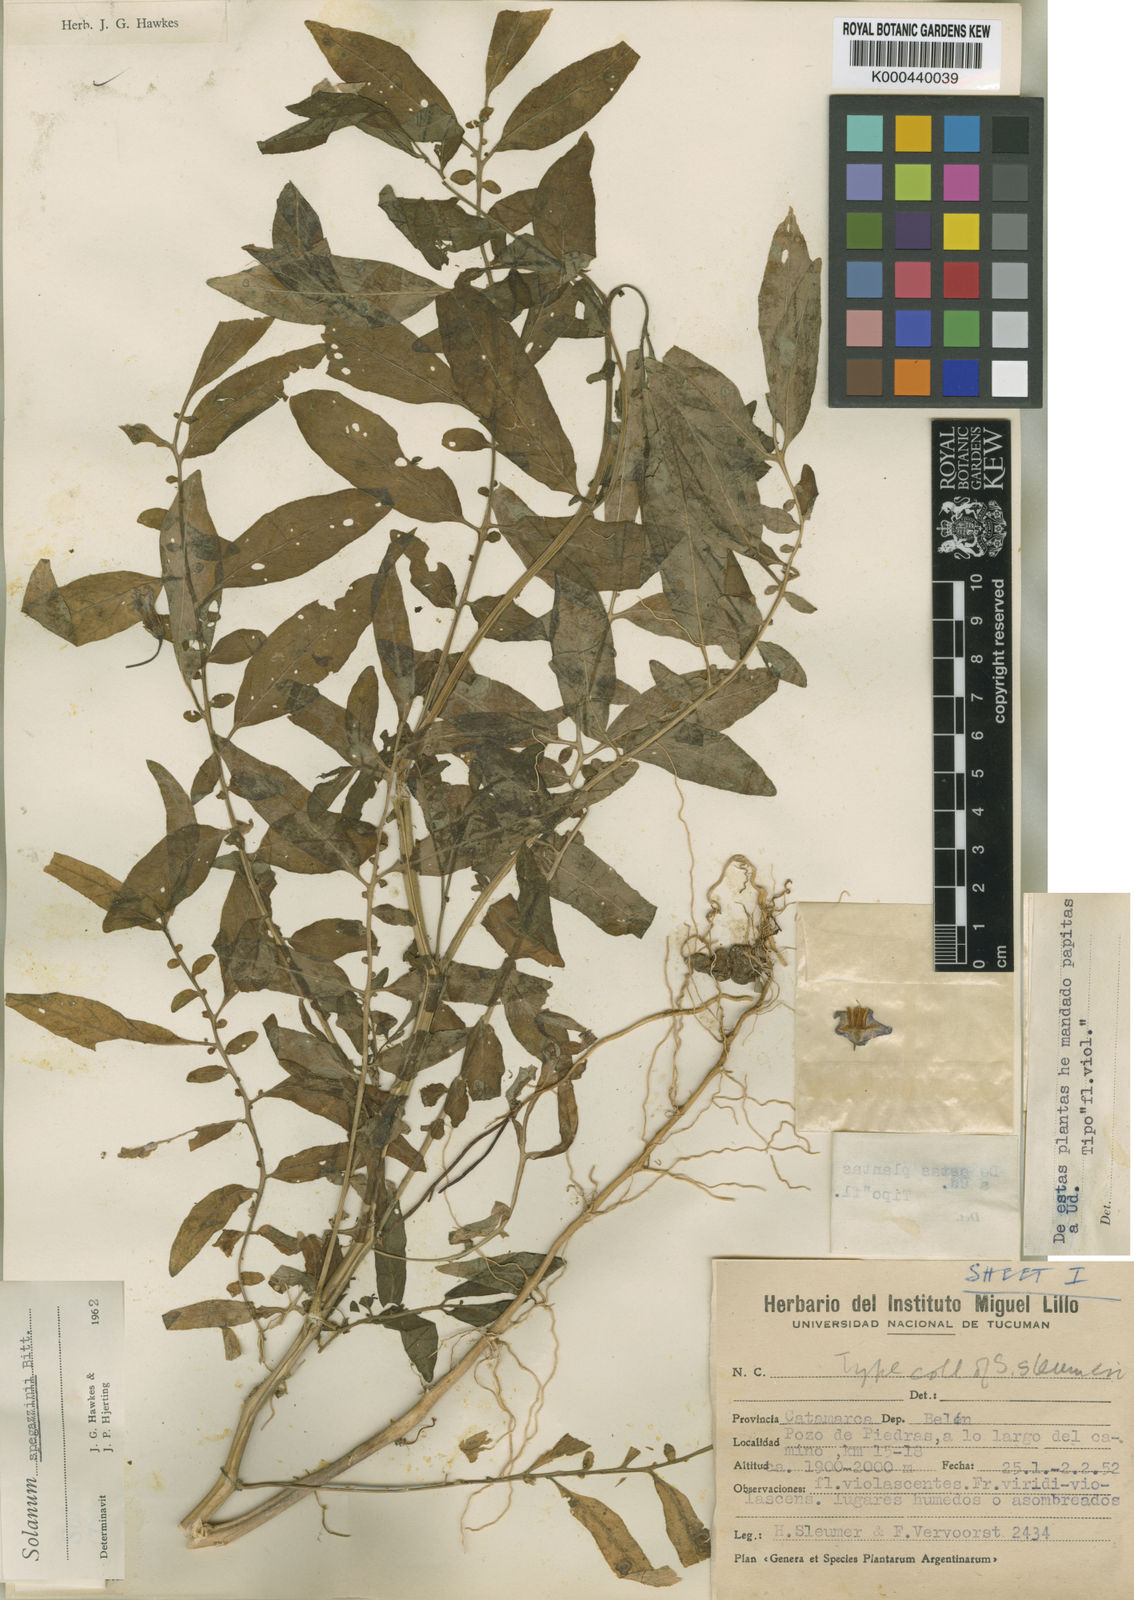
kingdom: Plantae
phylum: Tracheophyta
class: Magnoliopsida
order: Solanales
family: Solanaceae
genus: Solanum
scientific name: Solanum brevicaule
